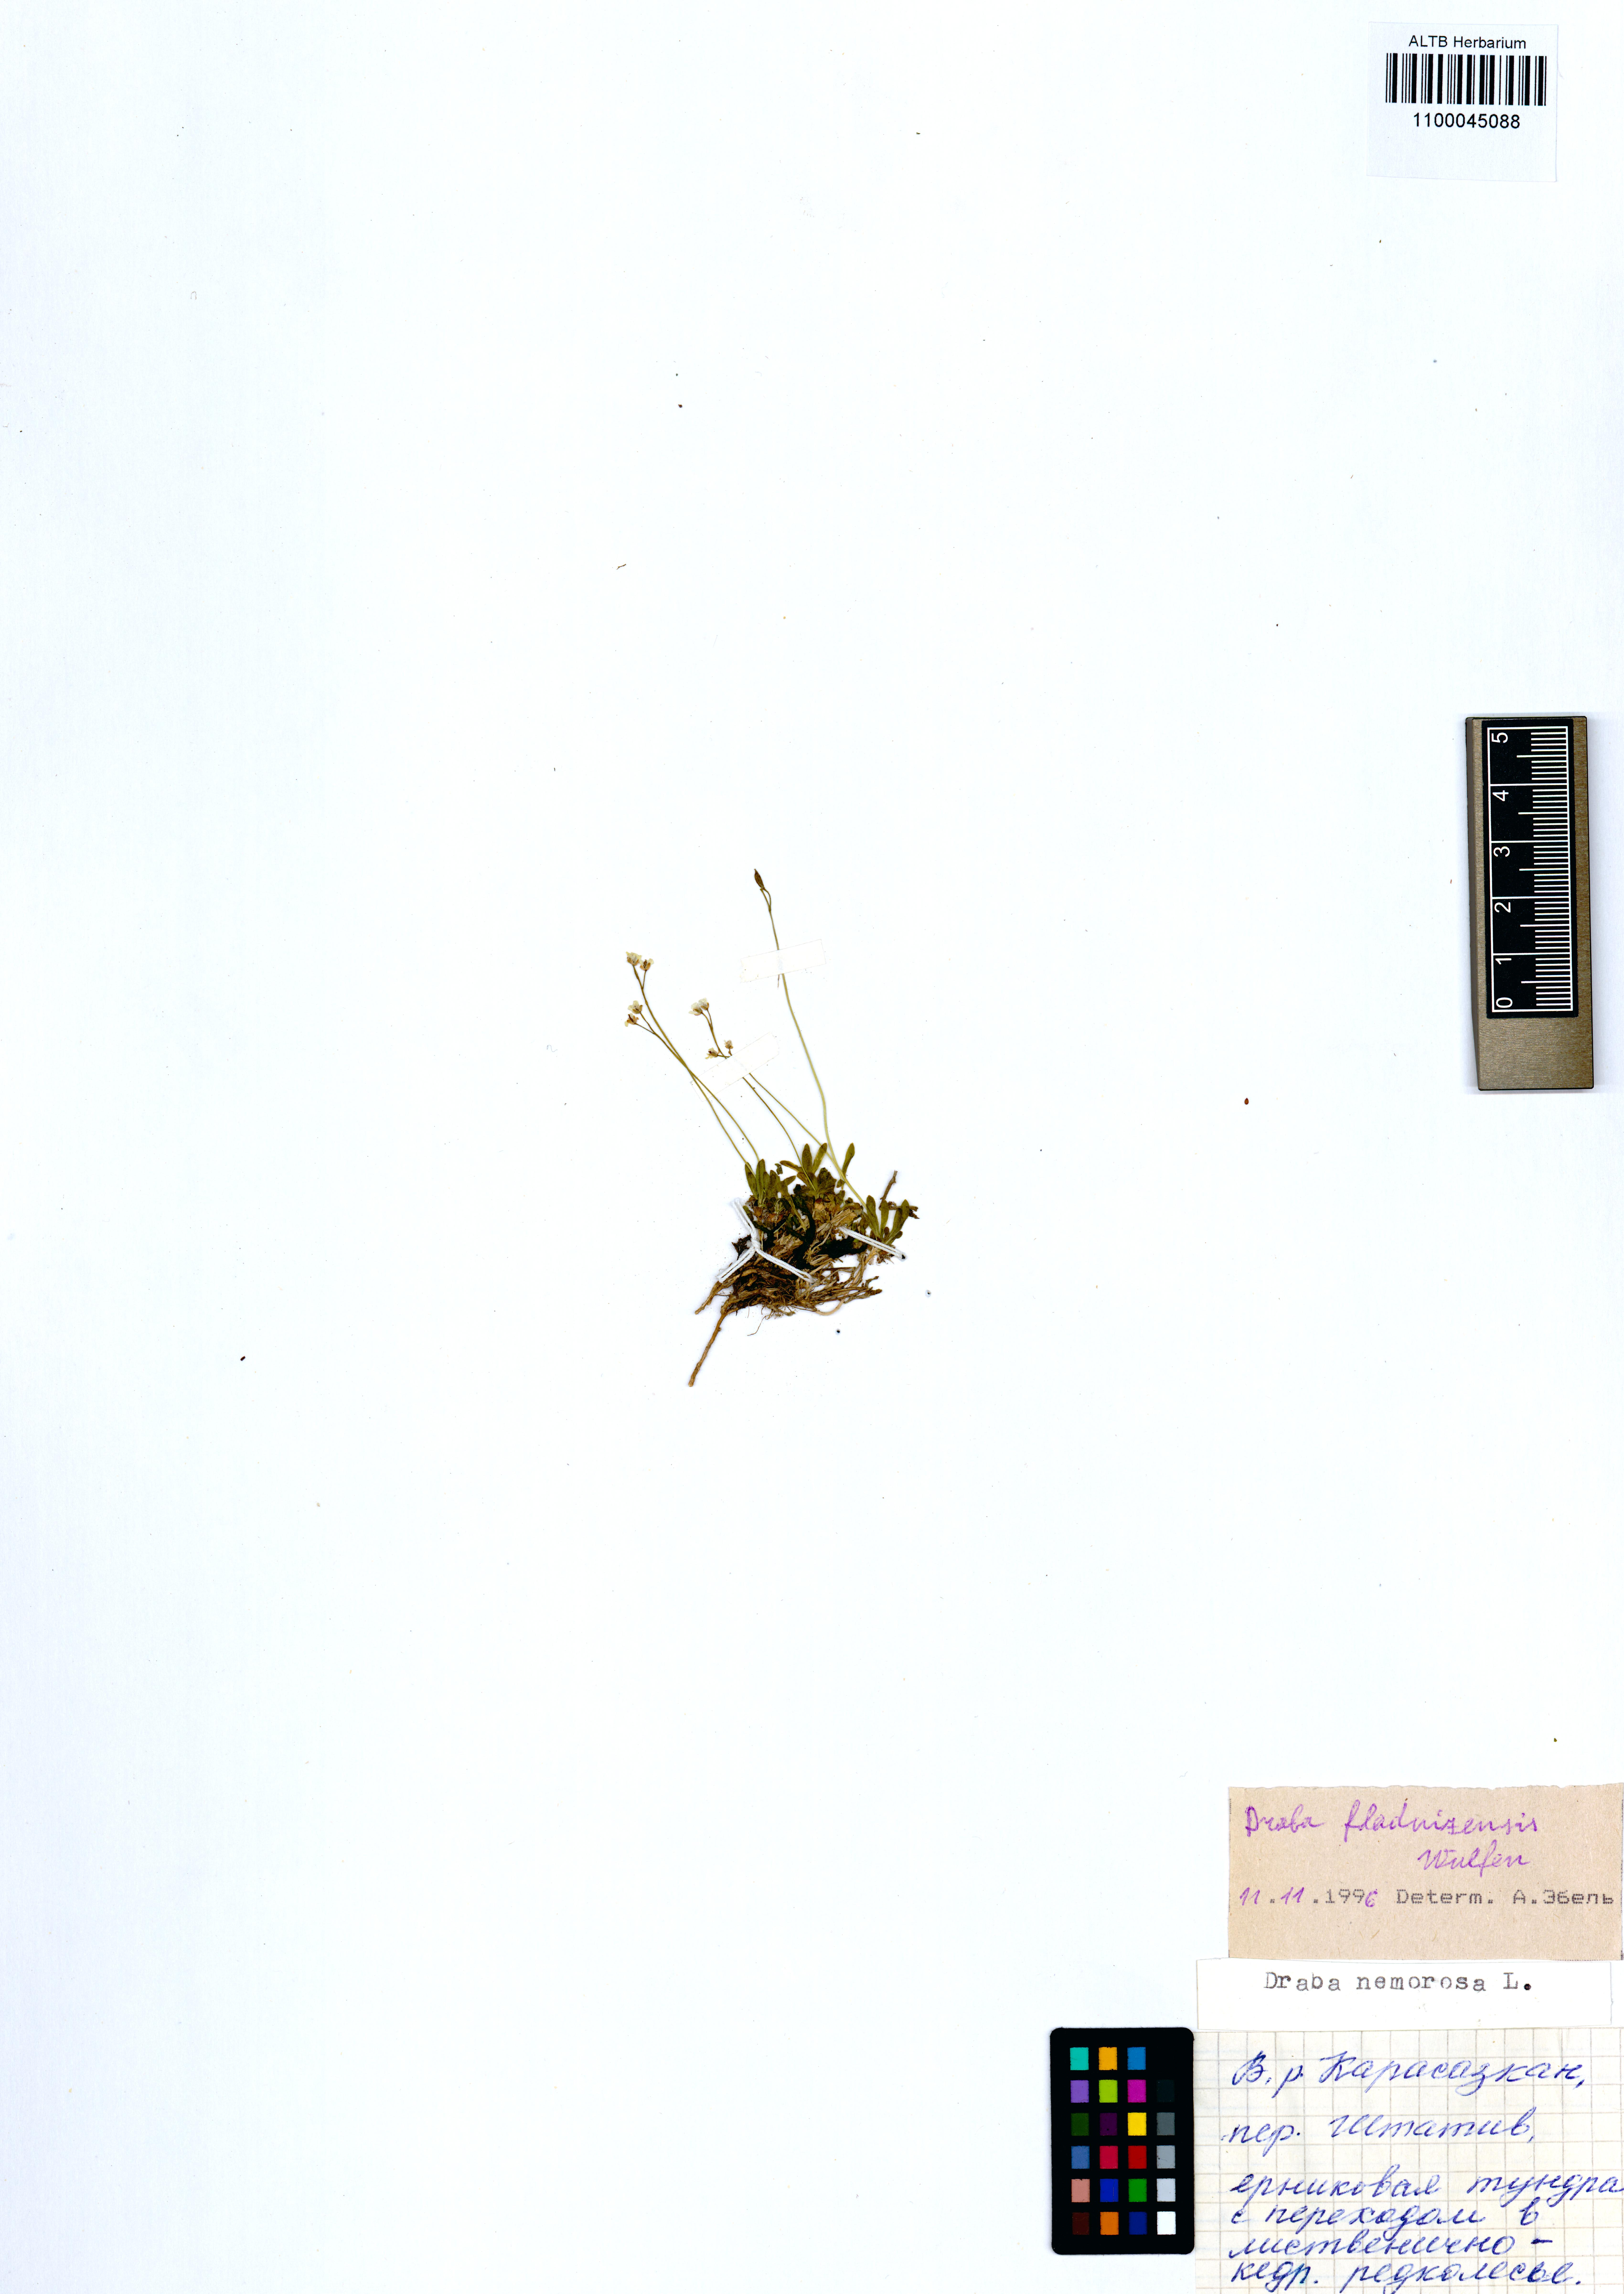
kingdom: Plantae
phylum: Tracheophyta
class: Magnoliopsida
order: Brassicales
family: Brassicaceae
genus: Draba
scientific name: Draba fladnizensis
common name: Austrian draba
